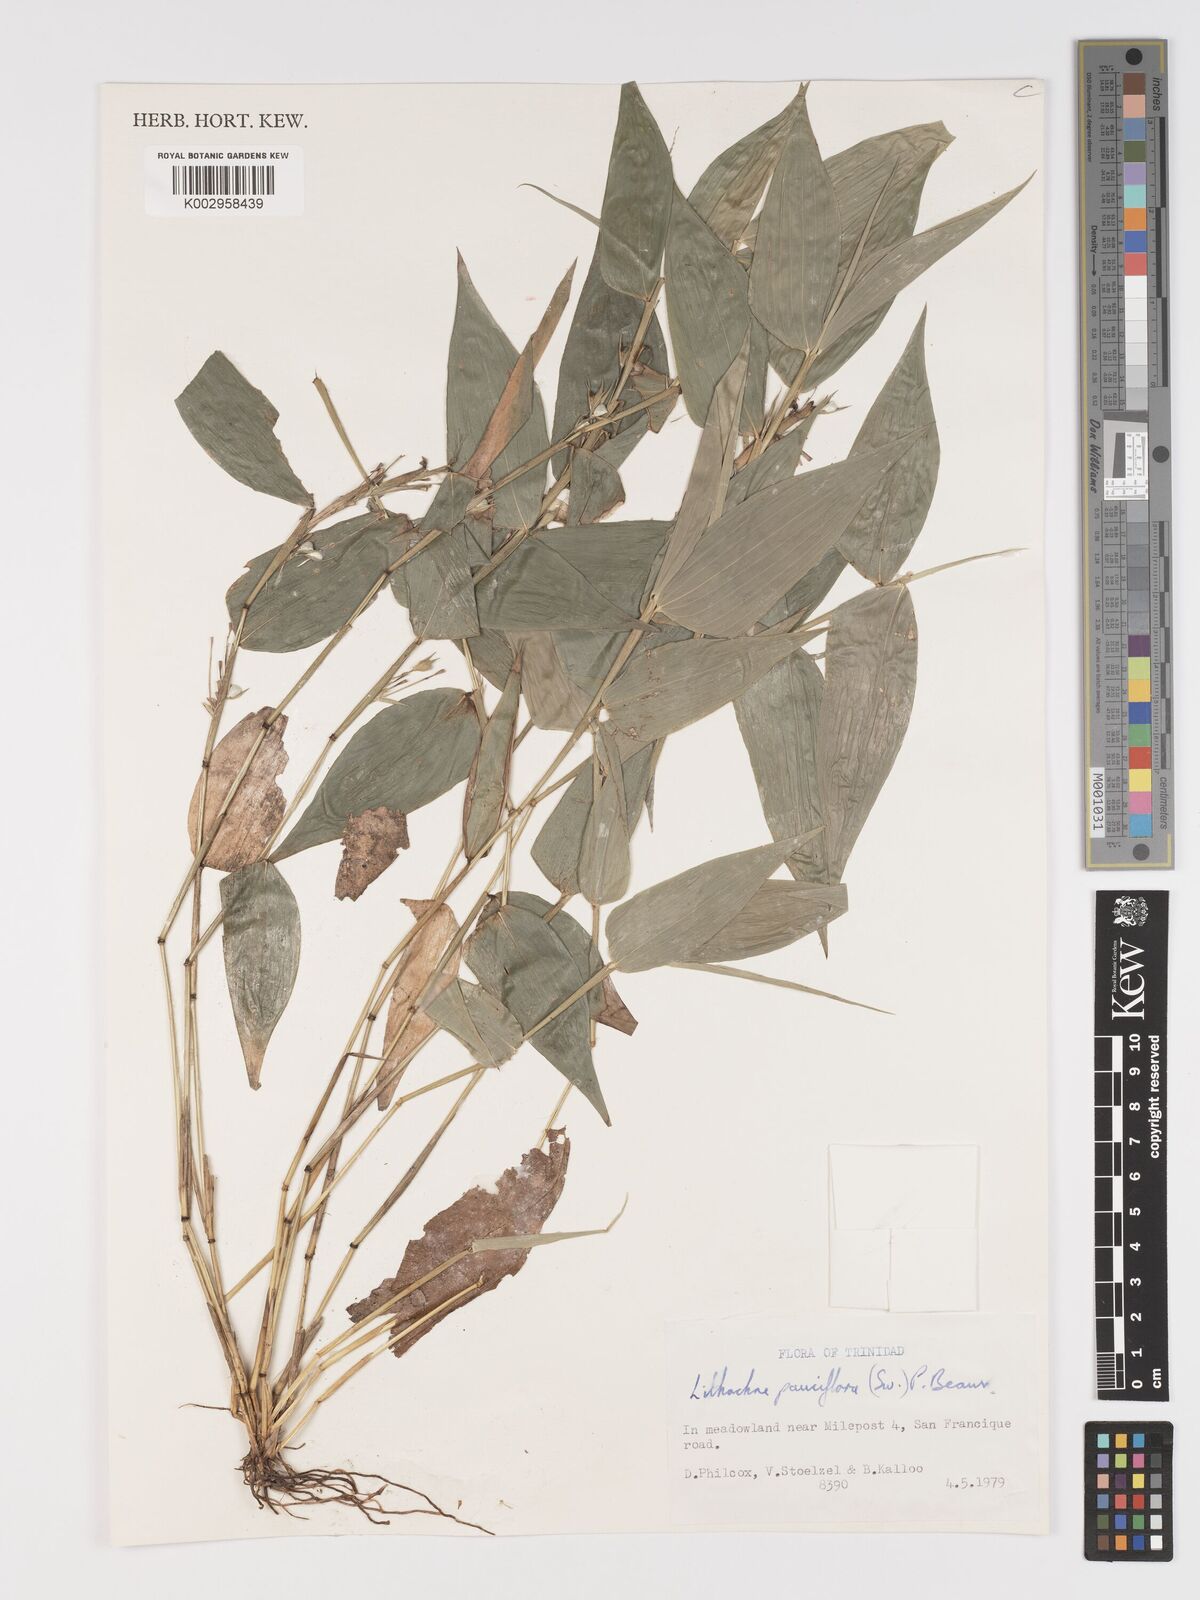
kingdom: Plantae
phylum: Tracheophyta
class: Liliopsida
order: Poales
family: Poaceae
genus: Lithachne
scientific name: Lithachne pauciflora
